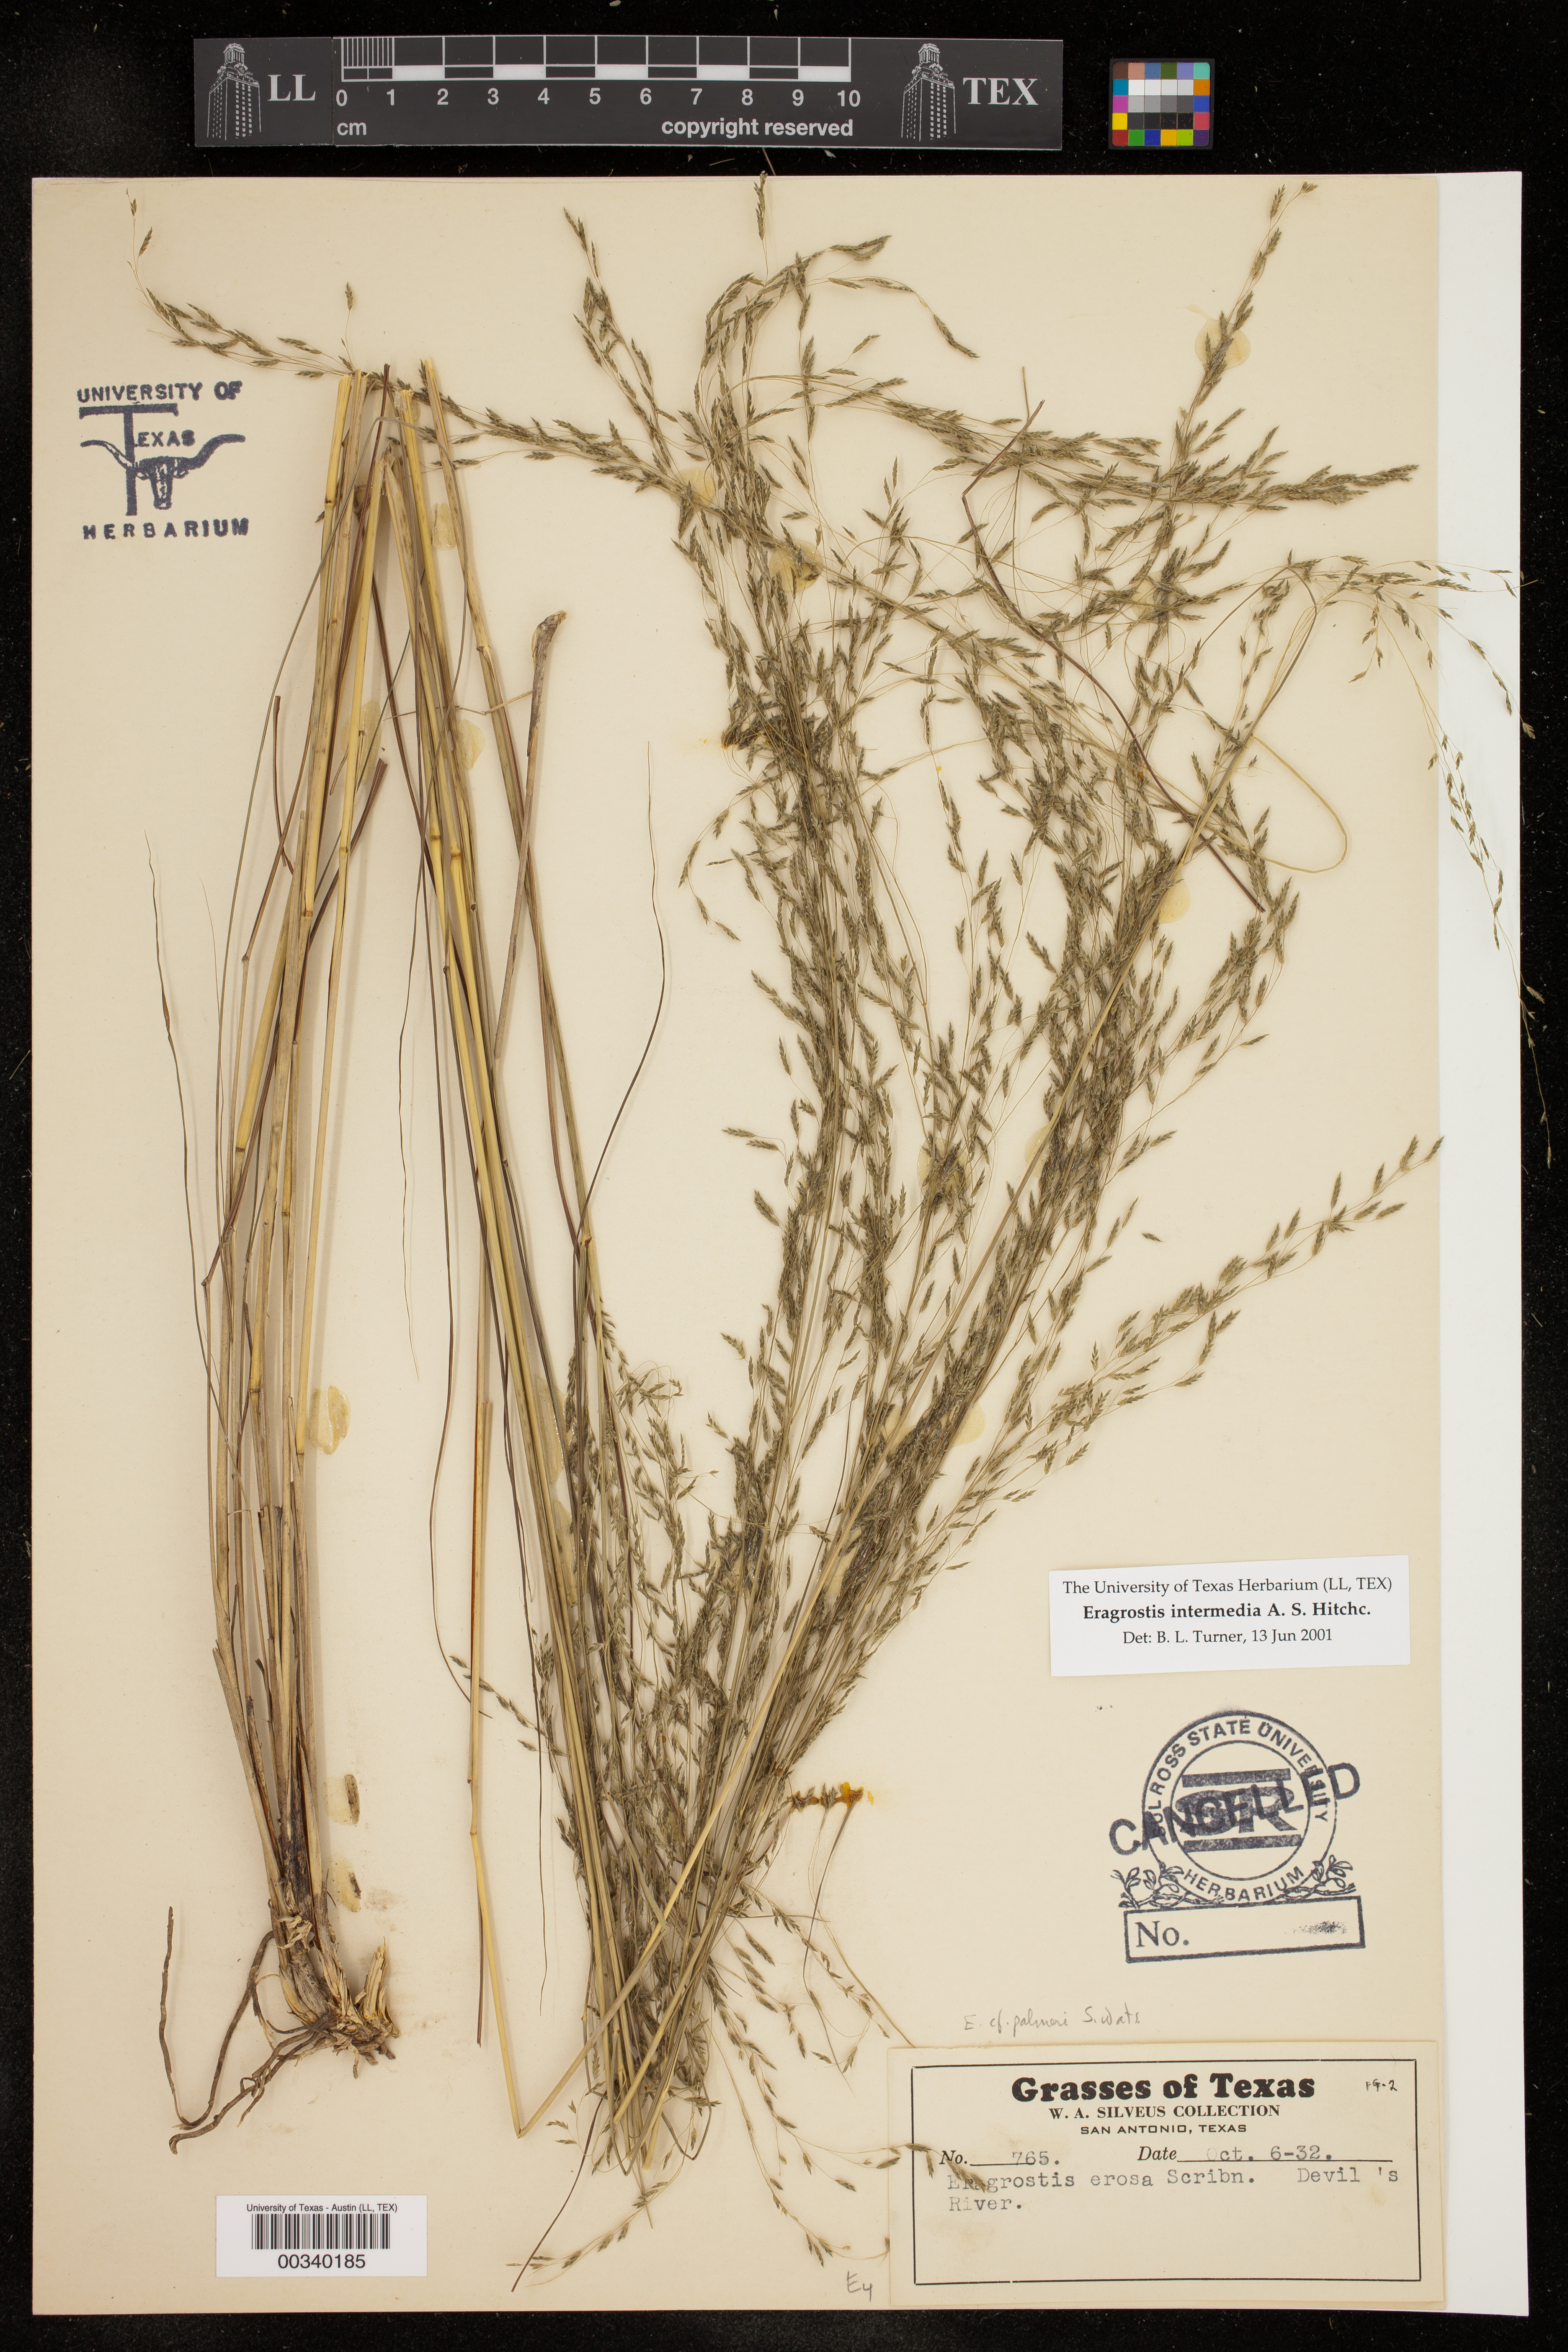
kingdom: Plantae
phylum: Tracheophyta
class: Liliopsida
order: Poales
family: Poaceae
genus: Eragrostis
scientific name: Eragrostis intermedia
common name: Plains love grass
